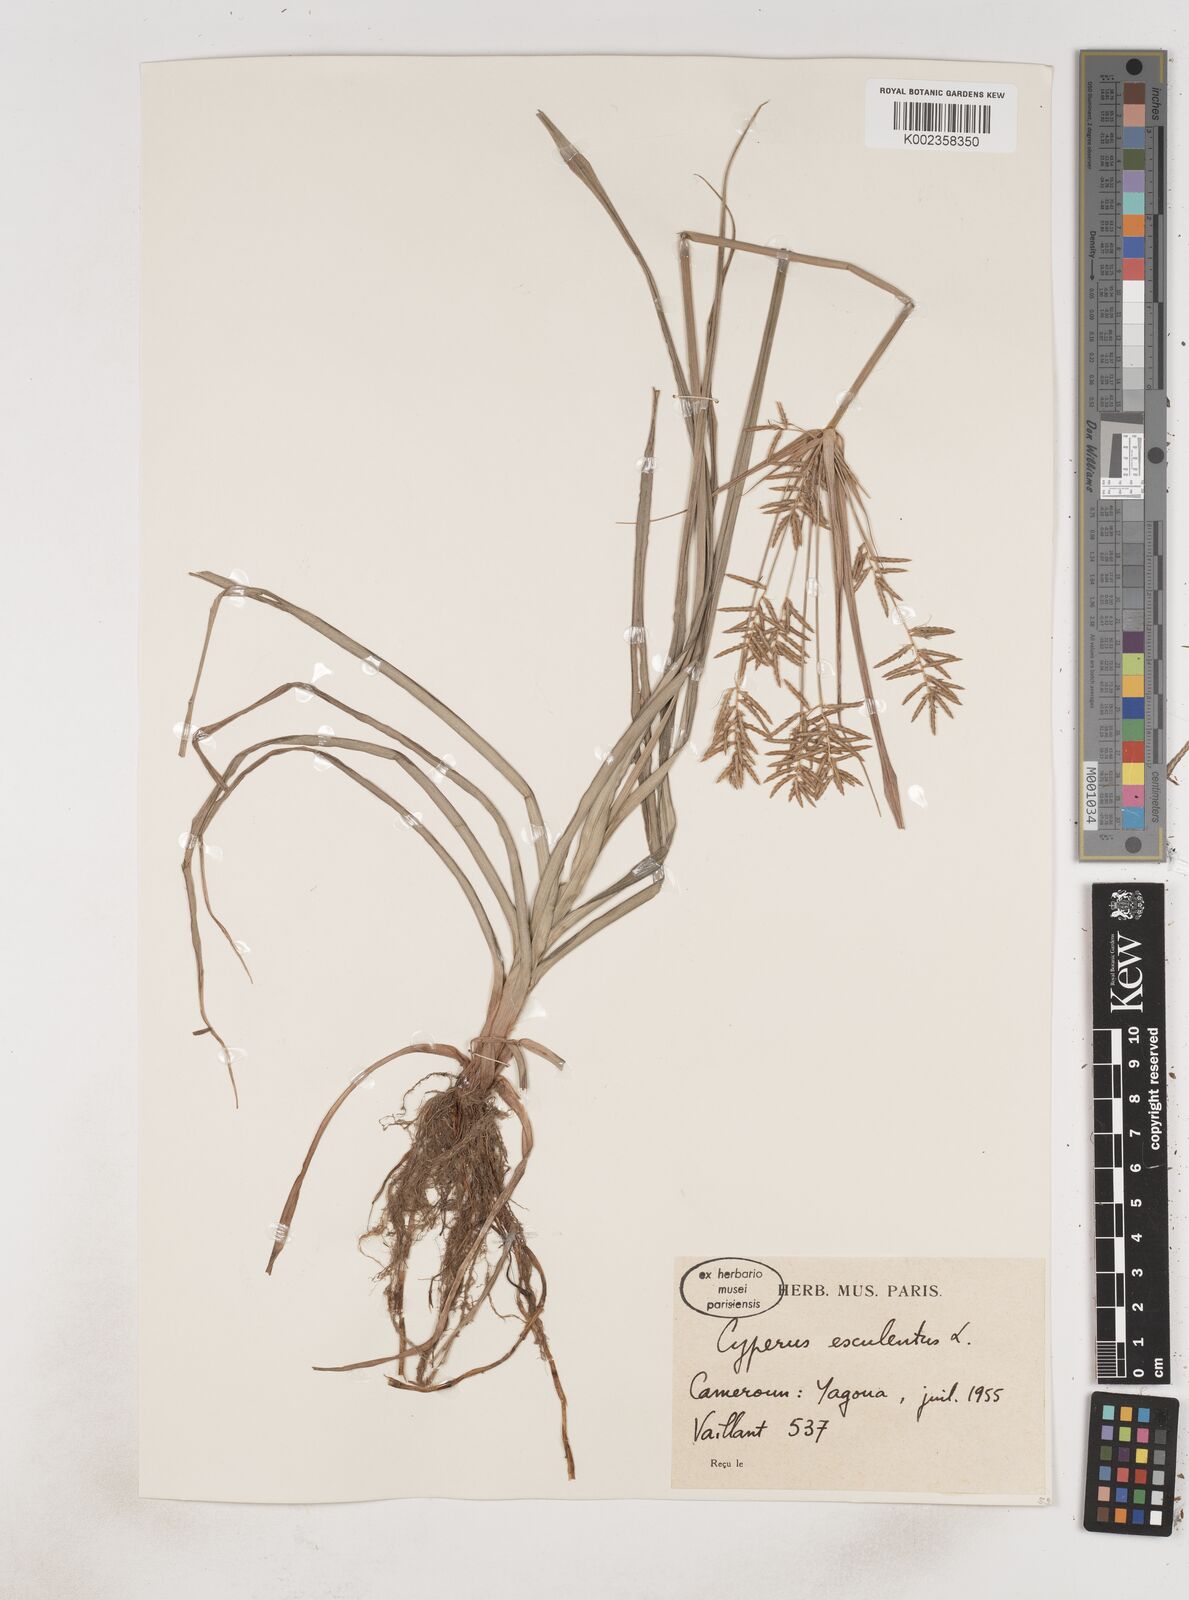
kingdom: Plantae
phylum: Tracheophyta
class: Liliopsida
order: Poales
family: Cyperaceae
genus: Cyperus
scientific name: Cyperus esculentus
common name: Yellow nutsedge
